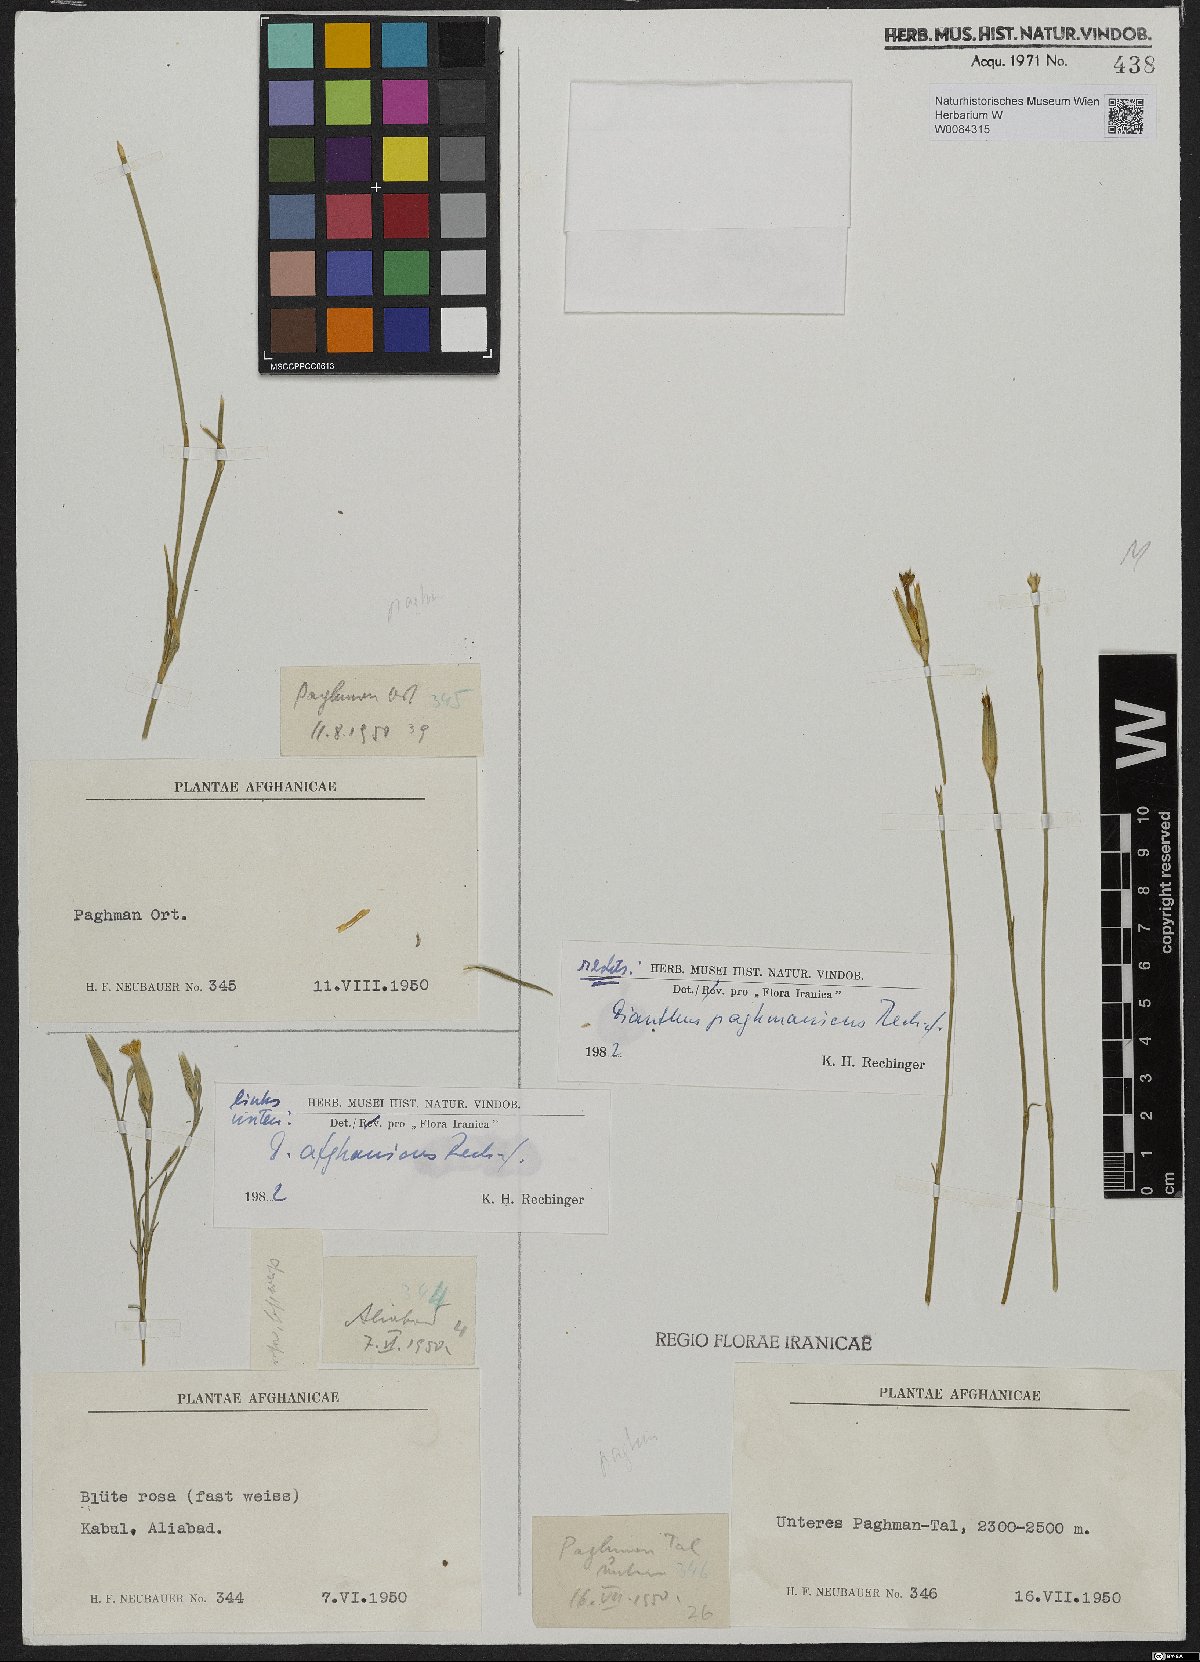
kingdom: Plantae
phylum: Tracheophyta
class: Magnoliopsida
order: Caryophyllales
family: Caryophyllaceae
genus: Dianthus
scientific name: Dianthus paghmanicus
